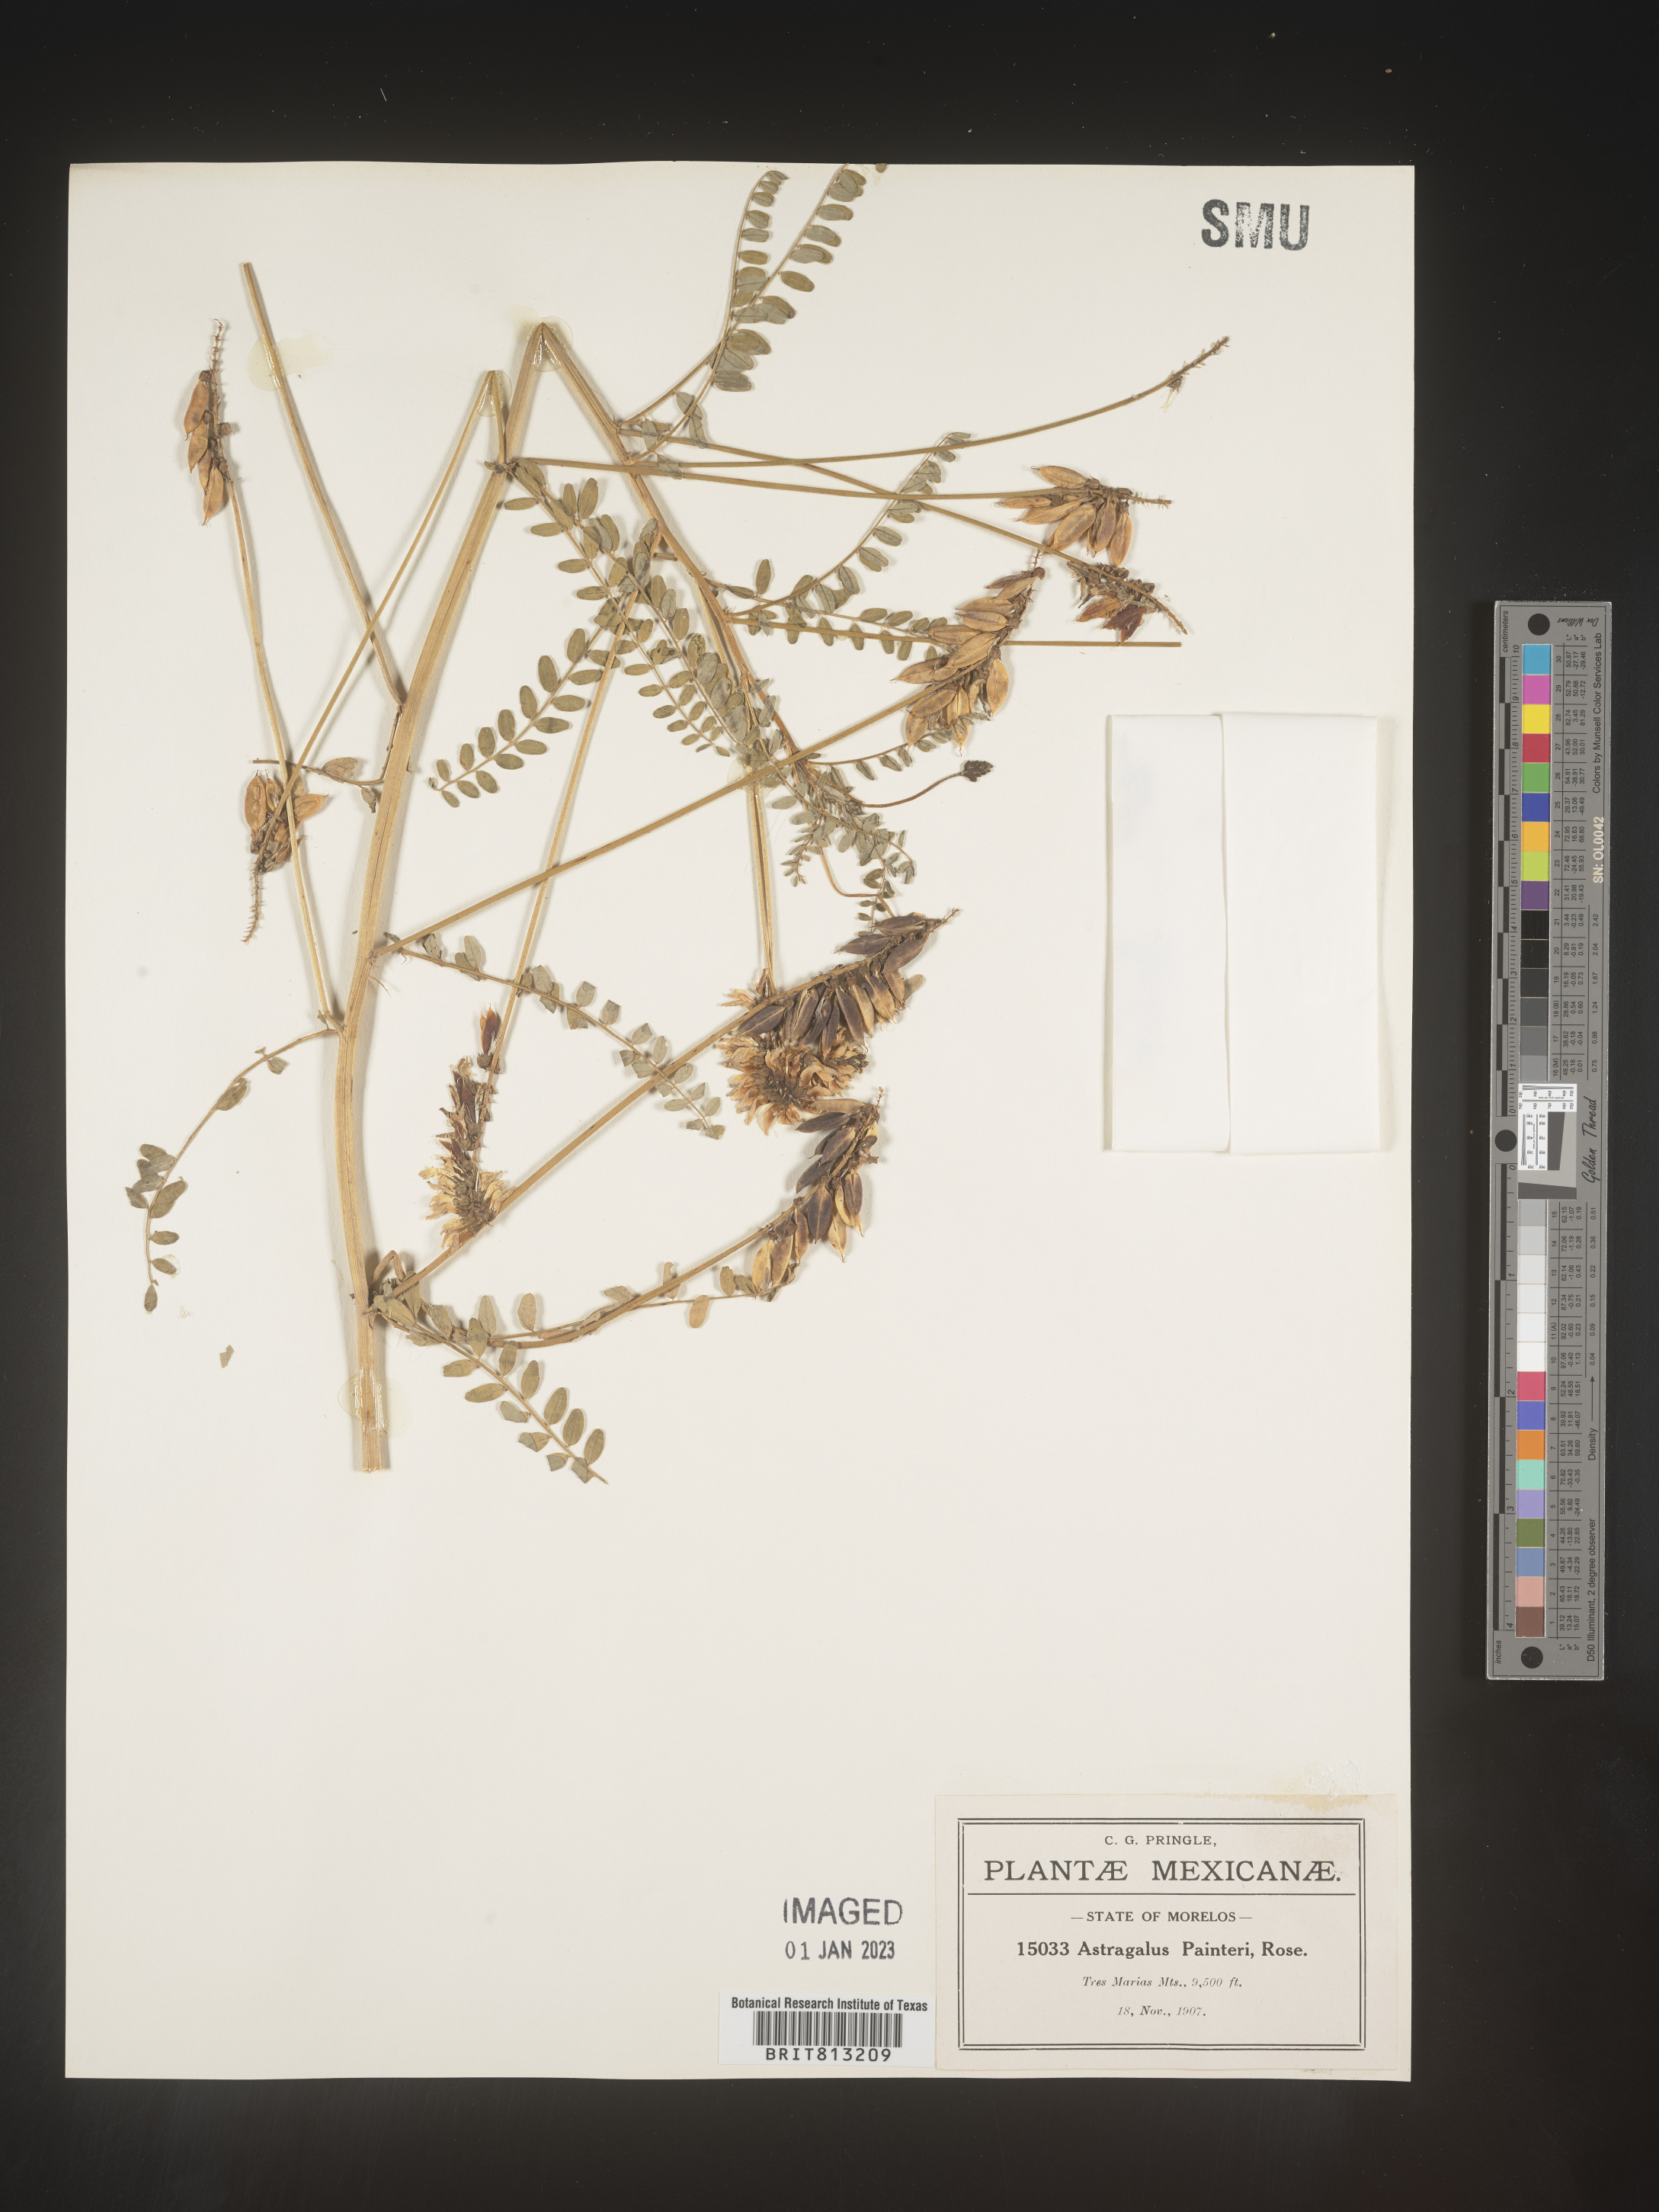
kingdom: Plantae
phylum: Tracheophyta
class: Magnoliopsida
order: Fabales
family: Fabaceae
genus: Astragalus
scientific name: Astragalus
